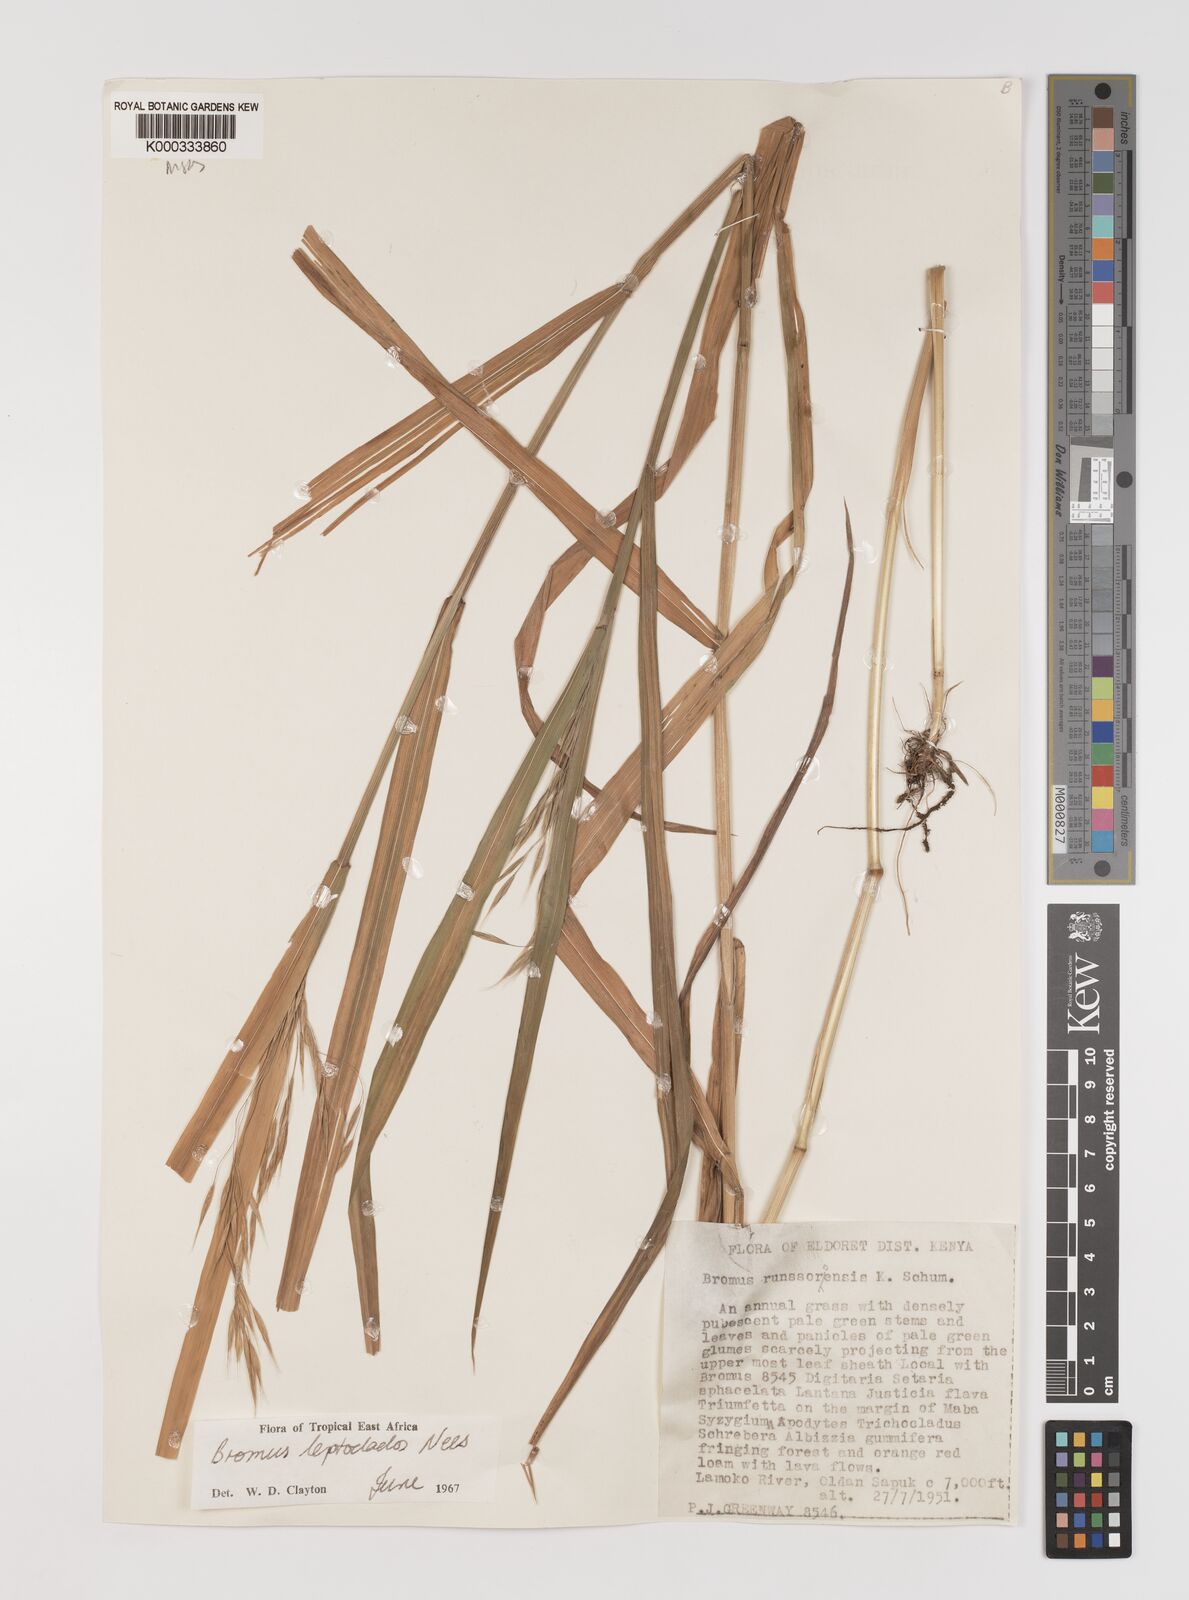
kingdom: Plantae
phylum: Tracheophyta
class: Liliopsida
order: Poales
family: Poaceae
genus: Bromus
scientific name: Bromus leptoclados
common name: Mountain bromegrass
